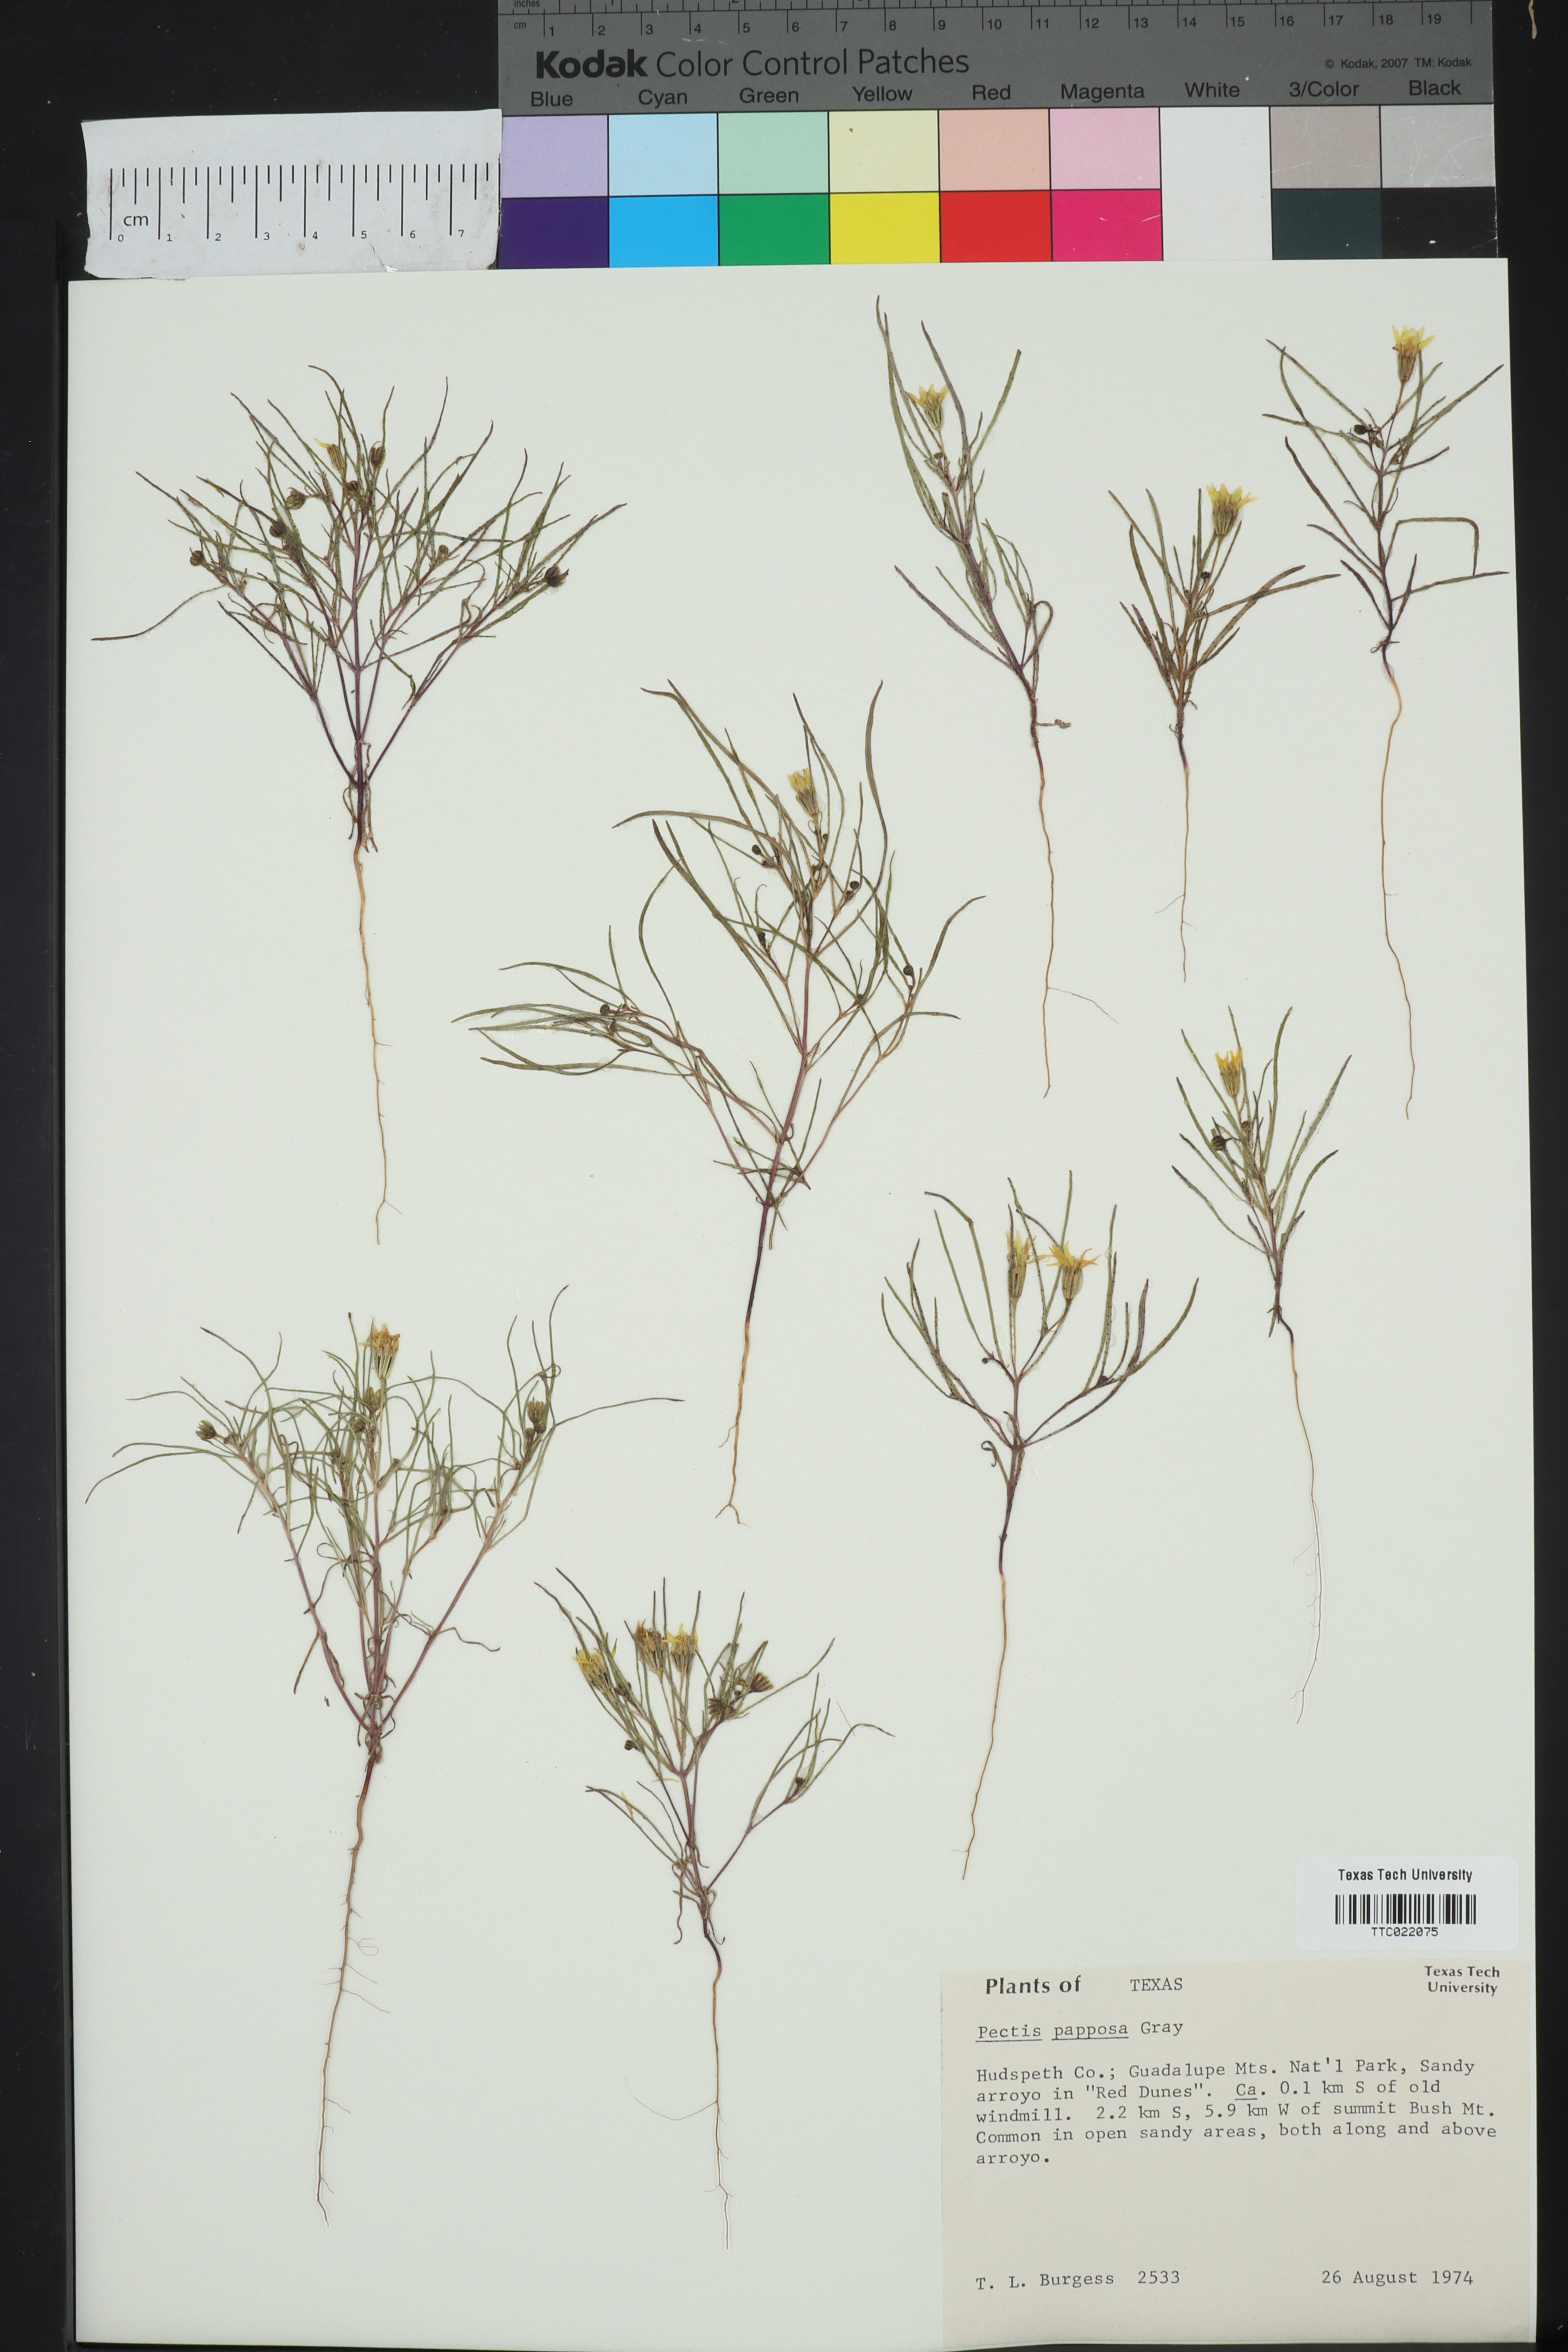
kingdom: Plantae
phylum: Tracheophyta
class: Magnoliopsida
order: Asterales
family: Asteraceae
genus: Pectis
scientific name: Pectis papposa
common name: Many-bristle chinchweed
